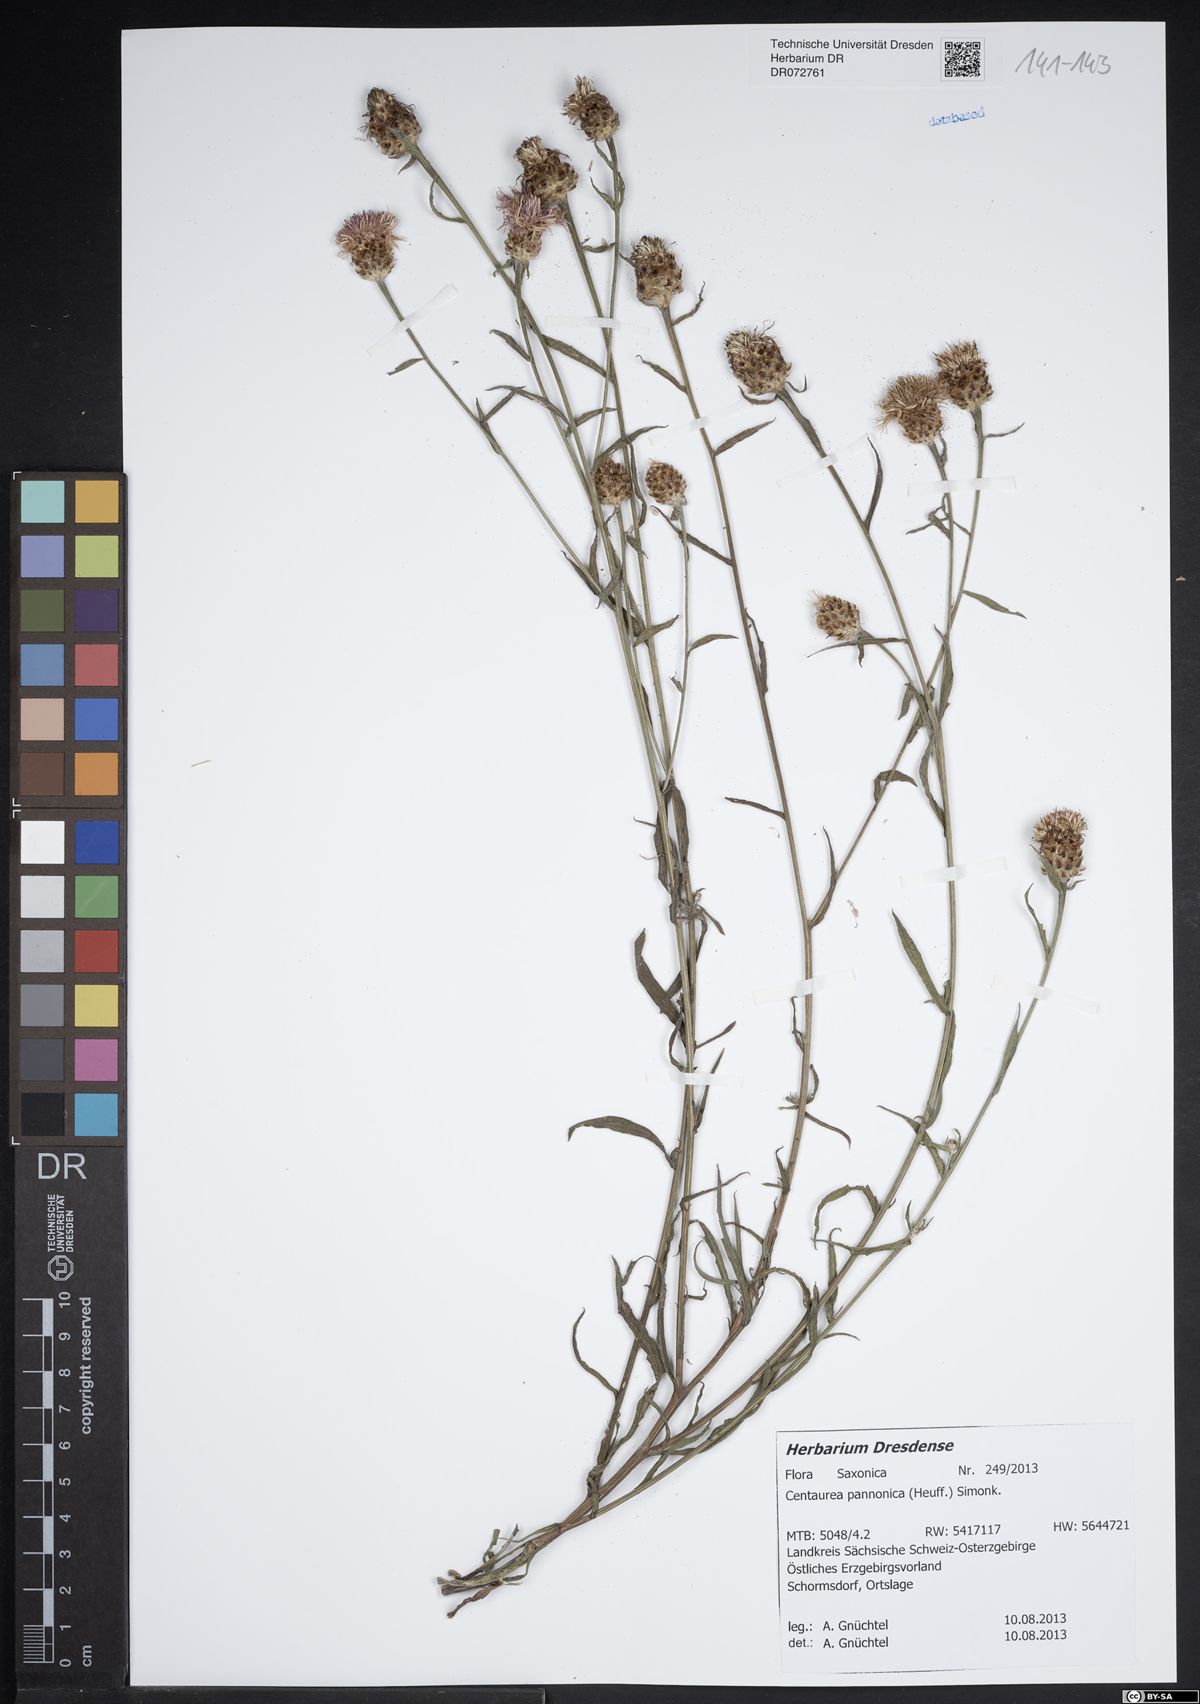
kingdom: Plantae
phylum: Tracheophyta
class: Magnoliopsida
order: Asterales
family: Asteraceae
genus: Centaurea
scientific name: Centaurea pannonica
